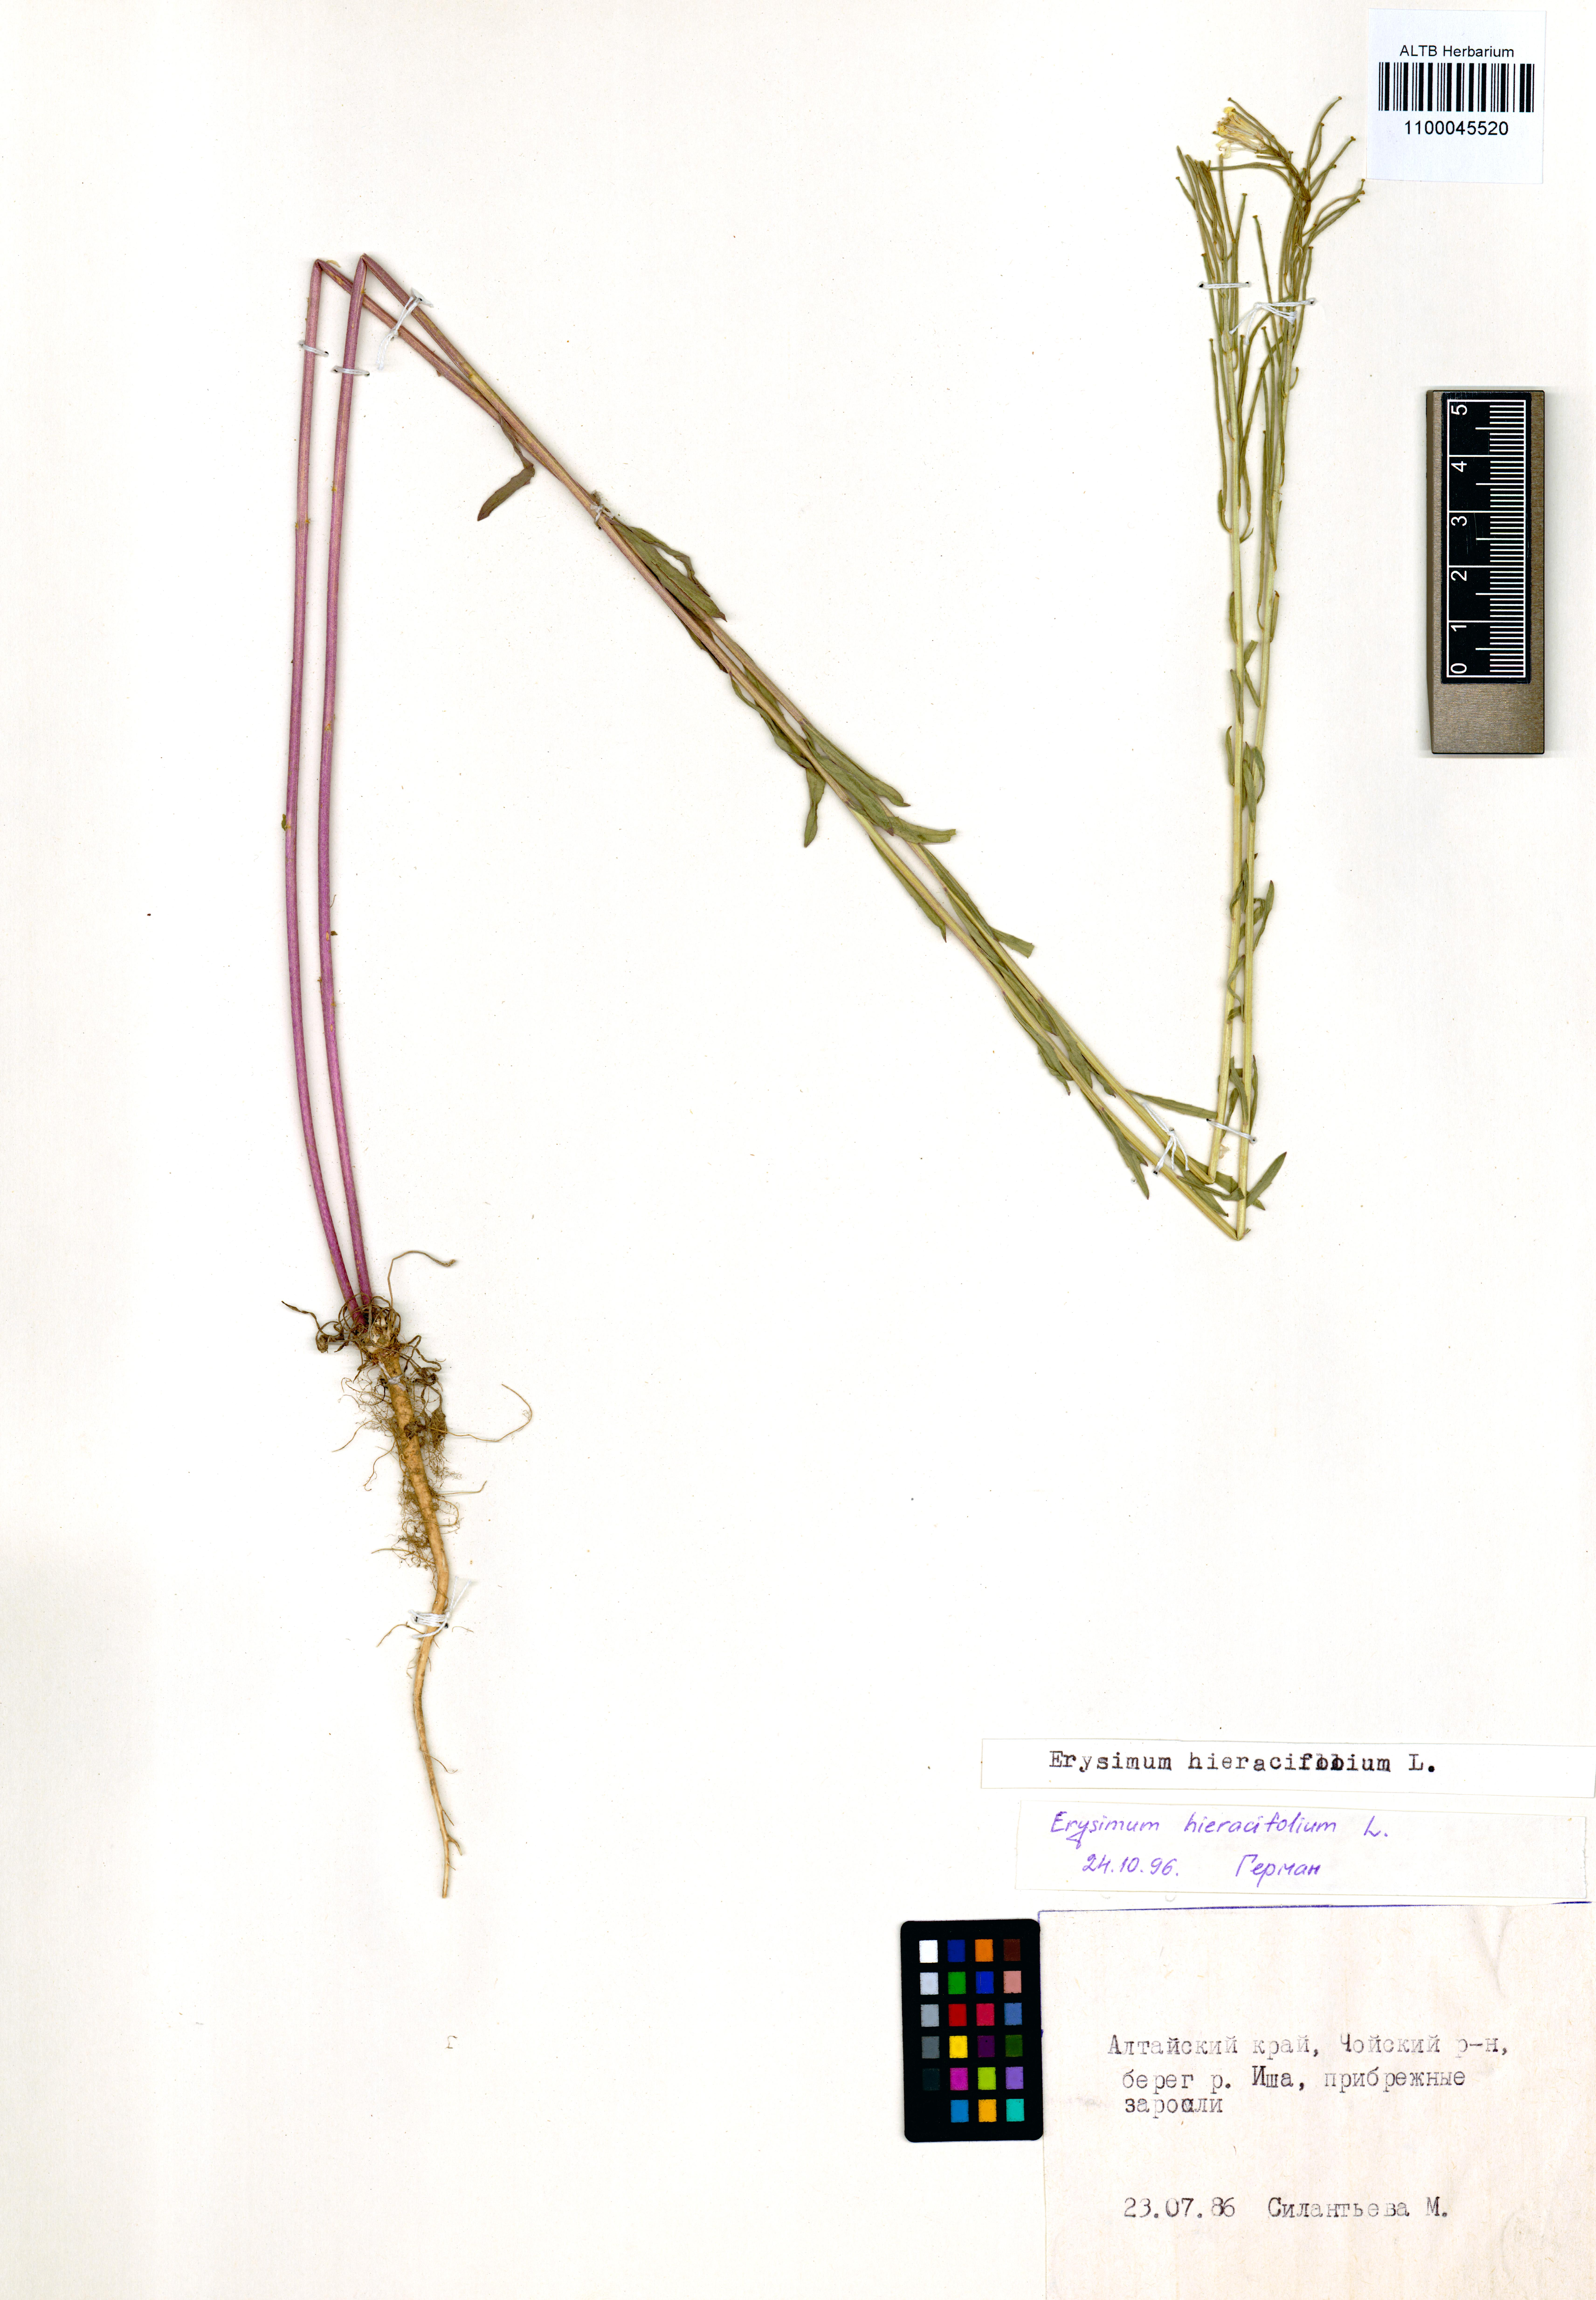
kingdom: Plantae
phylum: Tracheophyta
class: Magnoliopsida
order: Brassicales
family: Brassicaceae
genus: Erysimum
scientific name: Erysimum hieraciifolium
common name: European wallflower
